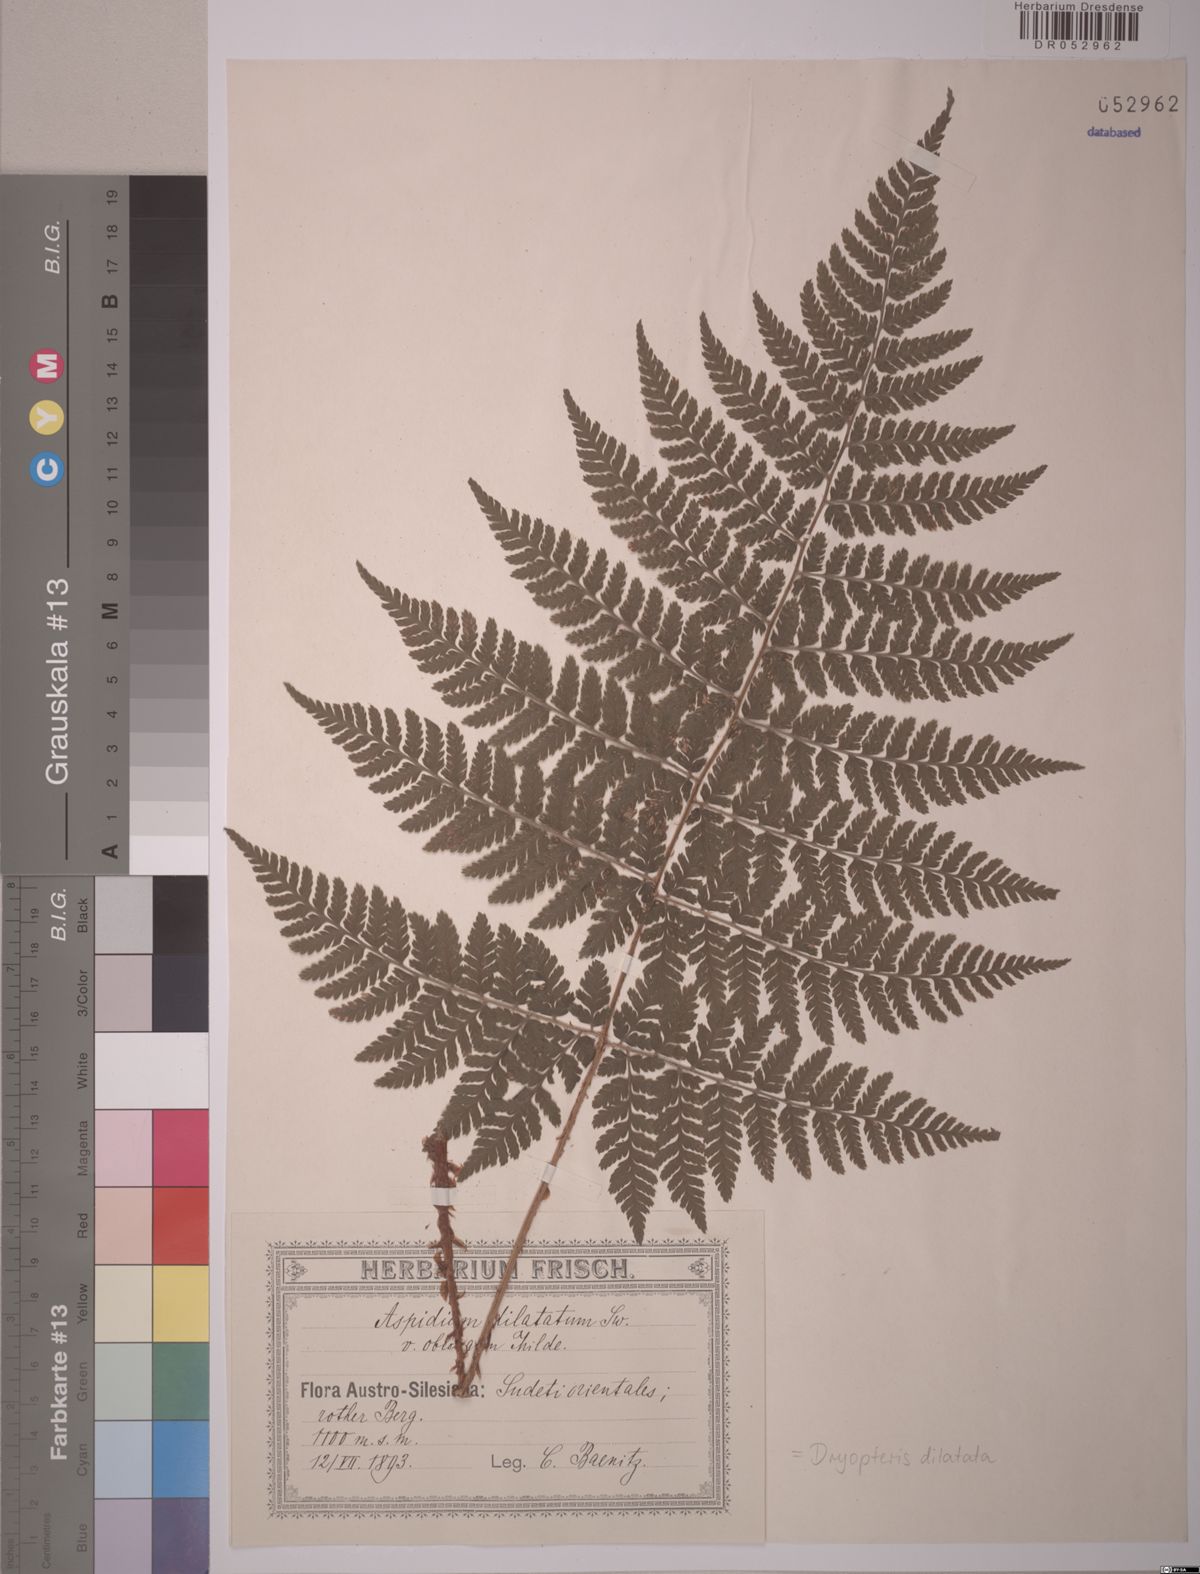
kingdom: Plantae
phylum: Tracheophyta
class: Polypodiopsida
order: Polypodiales
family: Dryopteridaceae
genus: Dryopteris
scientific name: Dryopteris dilatata
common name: Broad buckler-fern
